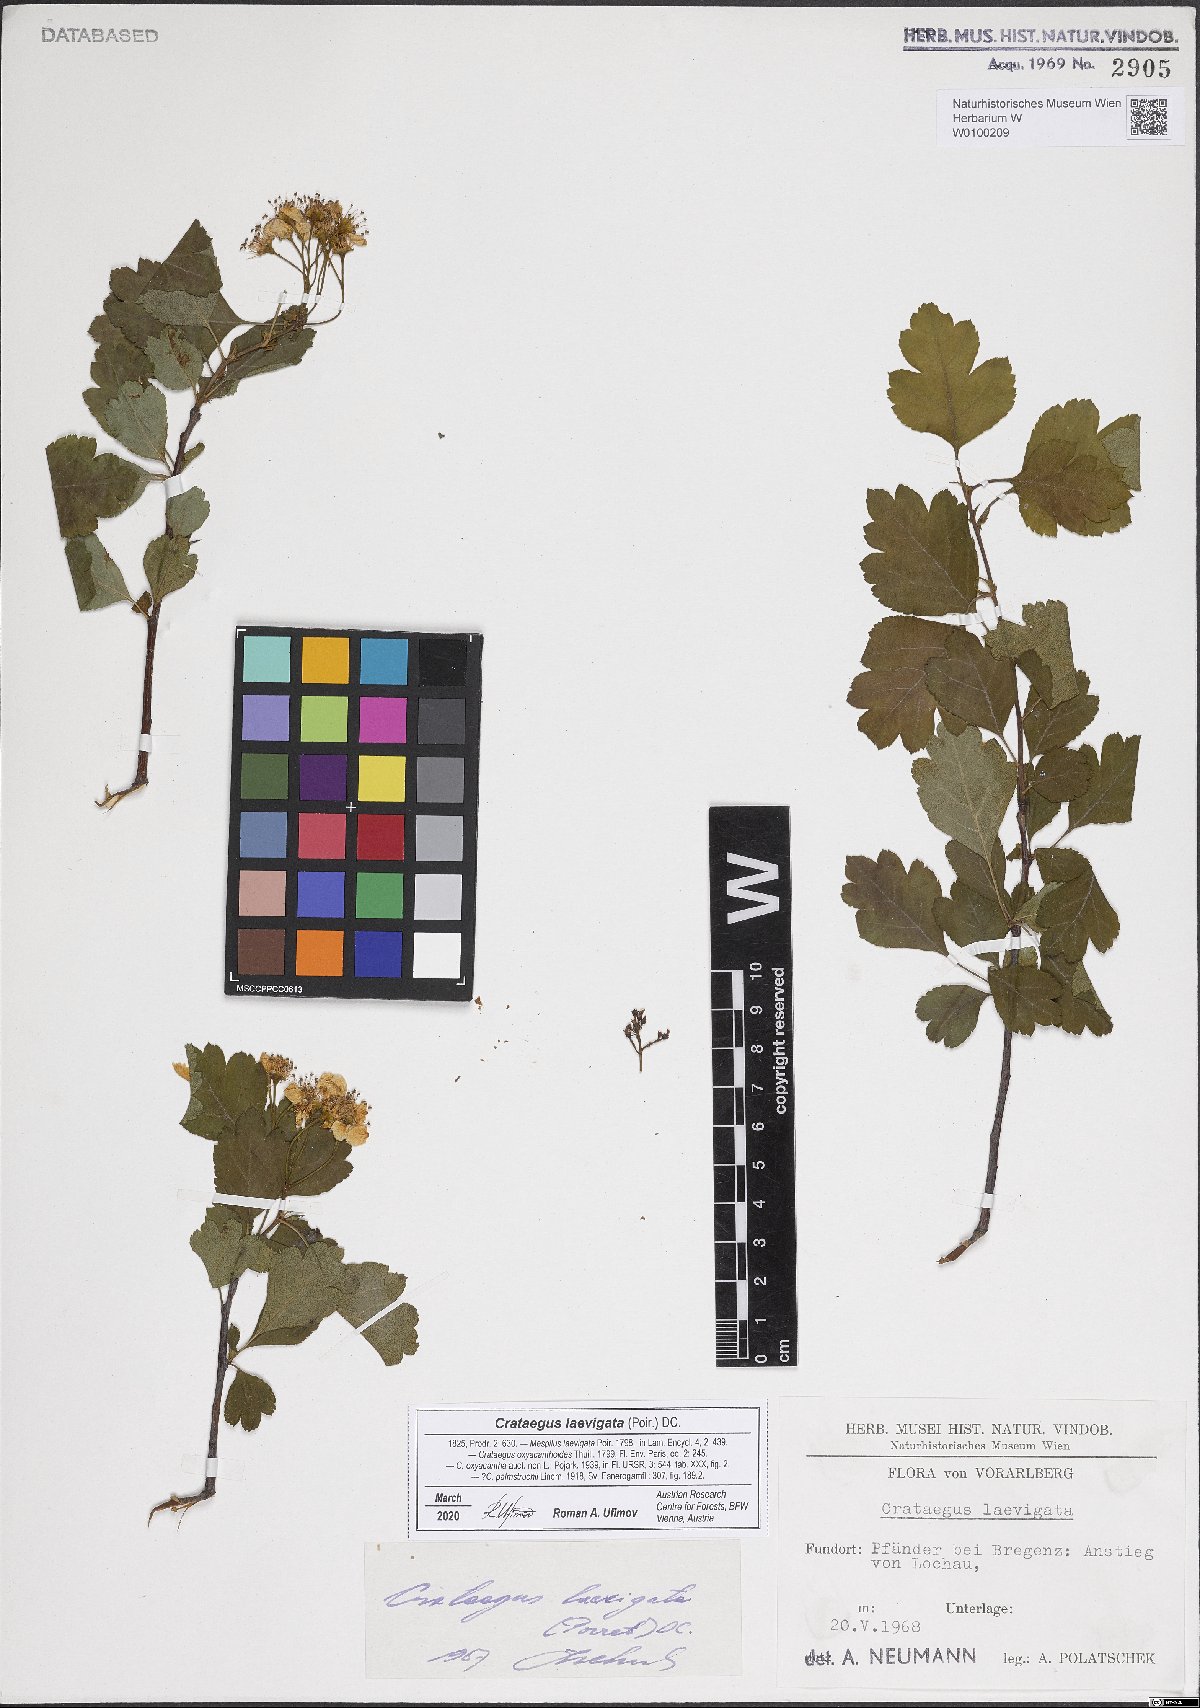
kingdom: Plantae
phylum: Tracheophyta
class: Magnoliopsida
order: Rosales
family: Rosaceae
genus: Crataegus
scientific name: Crataegus laevigata
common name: Midland hawthorn
